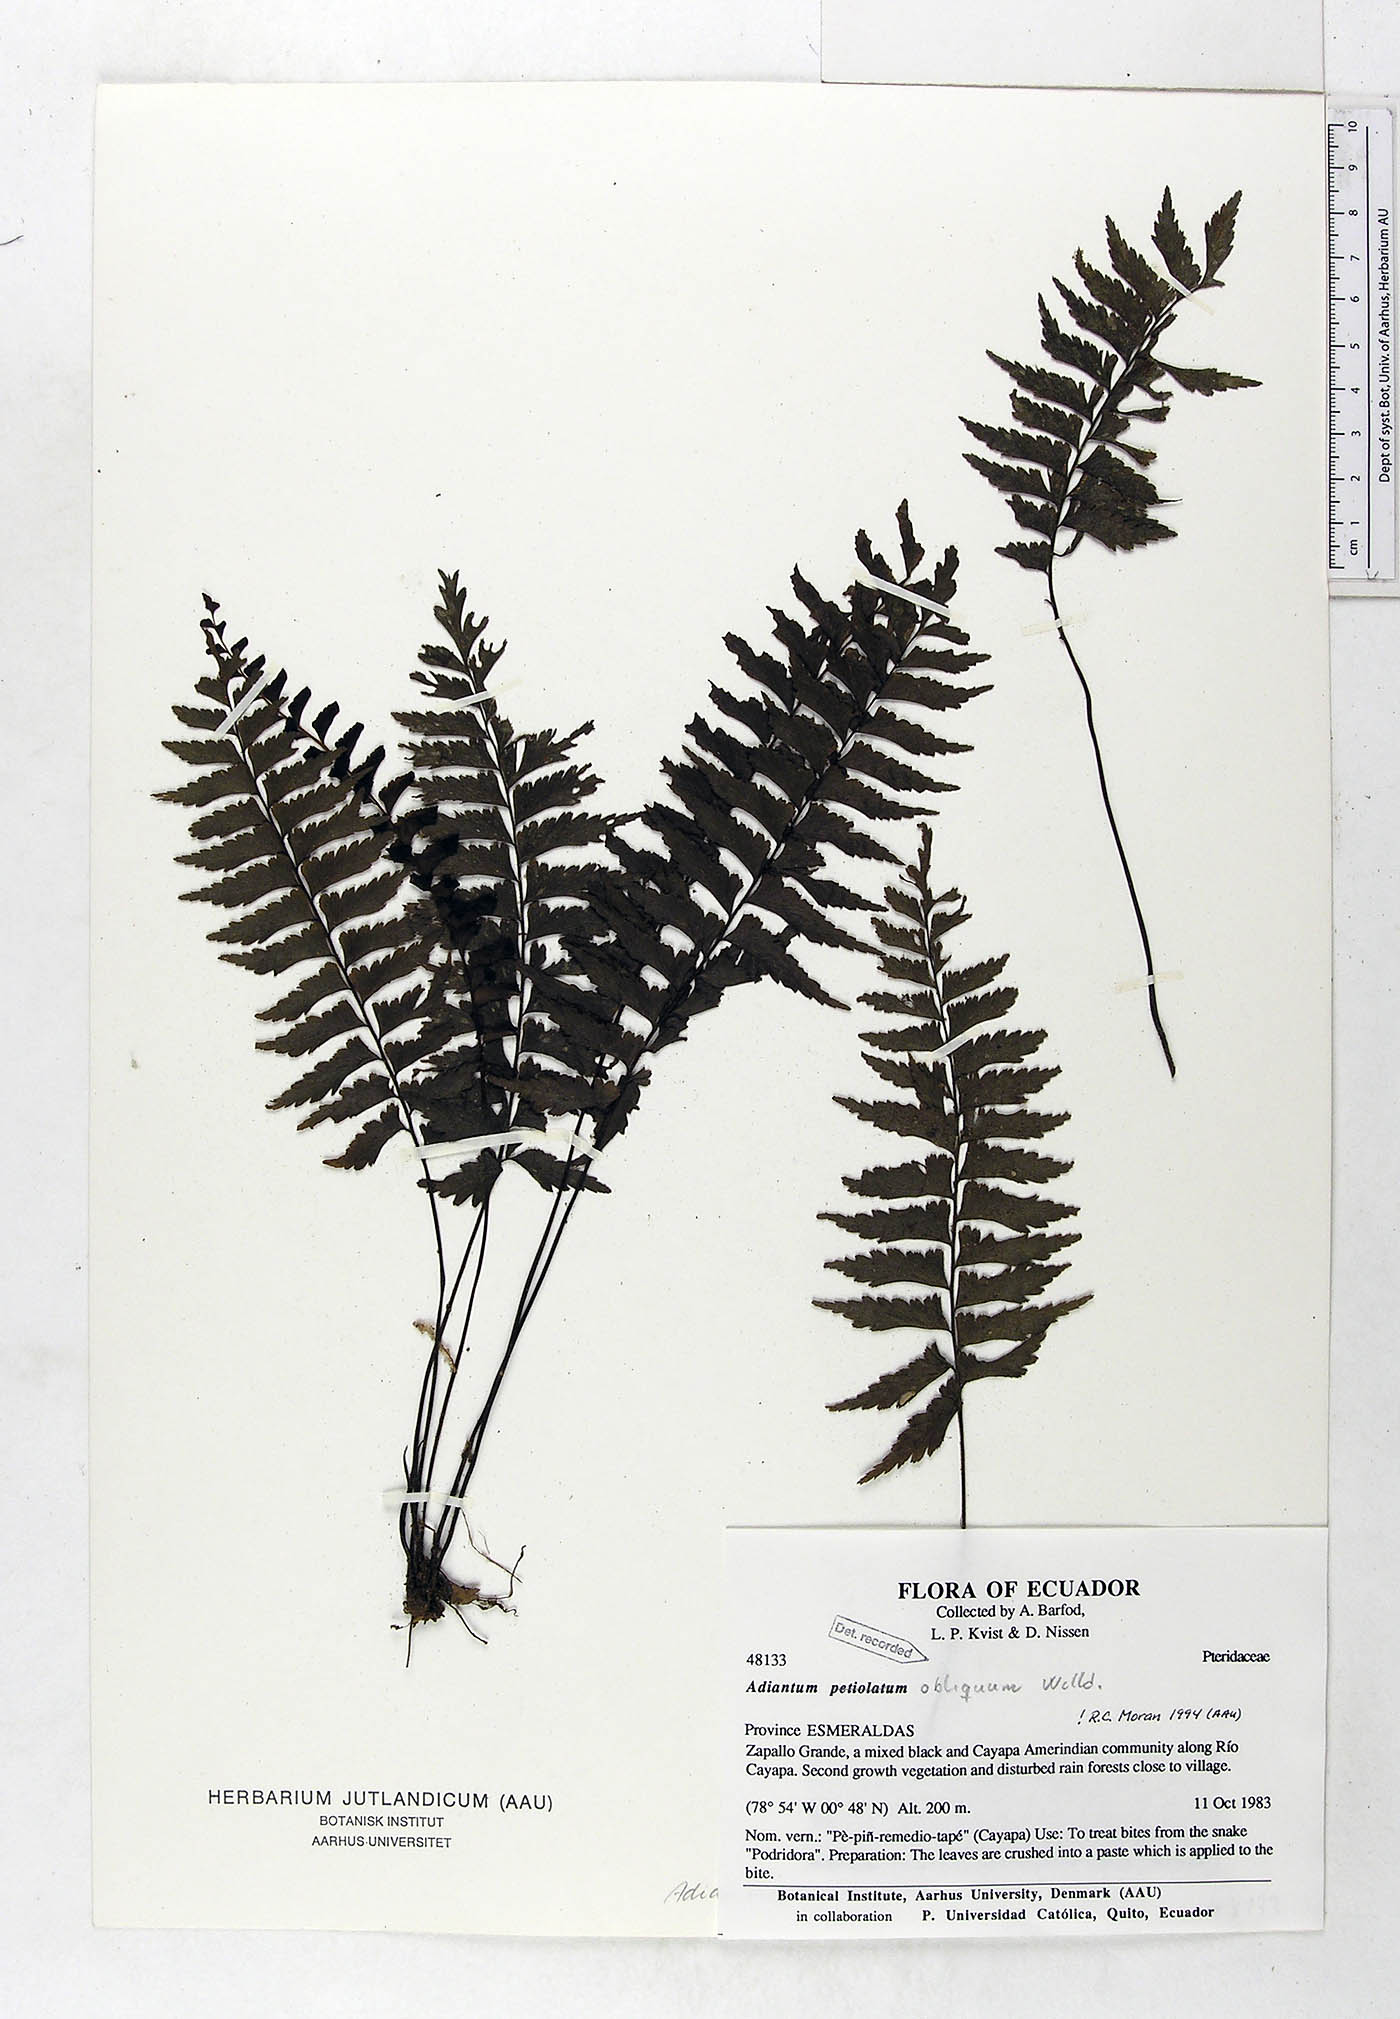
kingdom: Plantae
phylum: Tracheophyta
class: Polypodiopsida
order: Polypodiales
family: Pteridaceae
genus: Adiantum
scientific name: Adiantum obliquum
